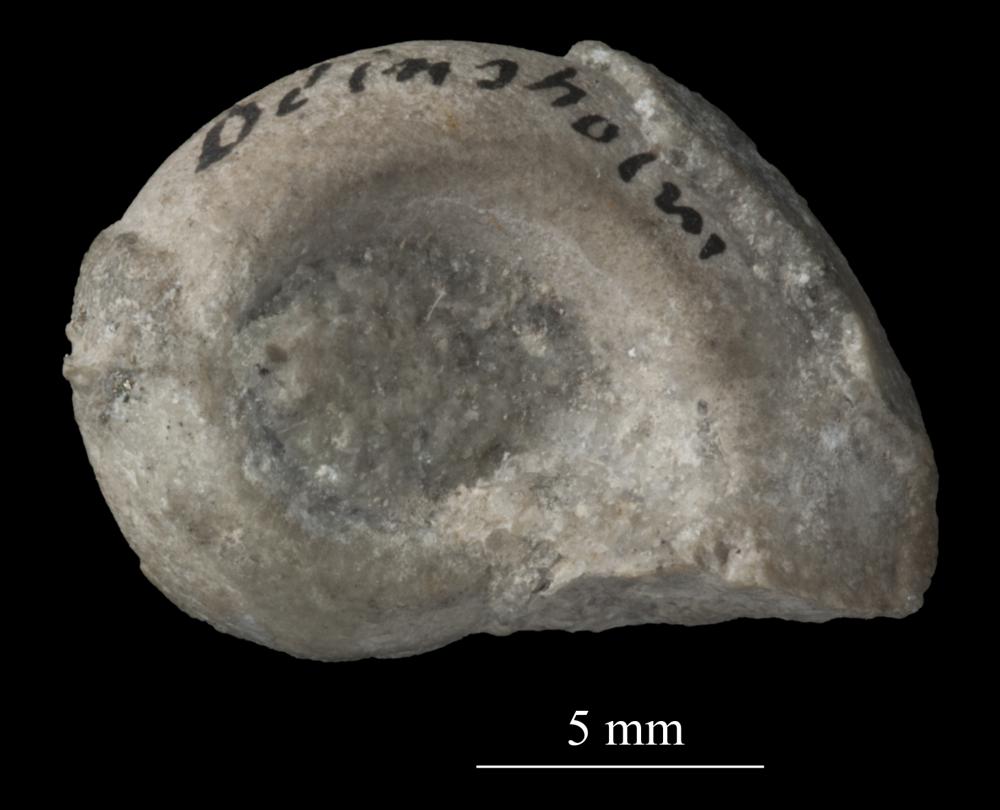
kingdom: Animalia
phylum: Mollusca
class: Gastropoda
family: Bucaniidae
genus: Bucania
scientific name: Bucania
